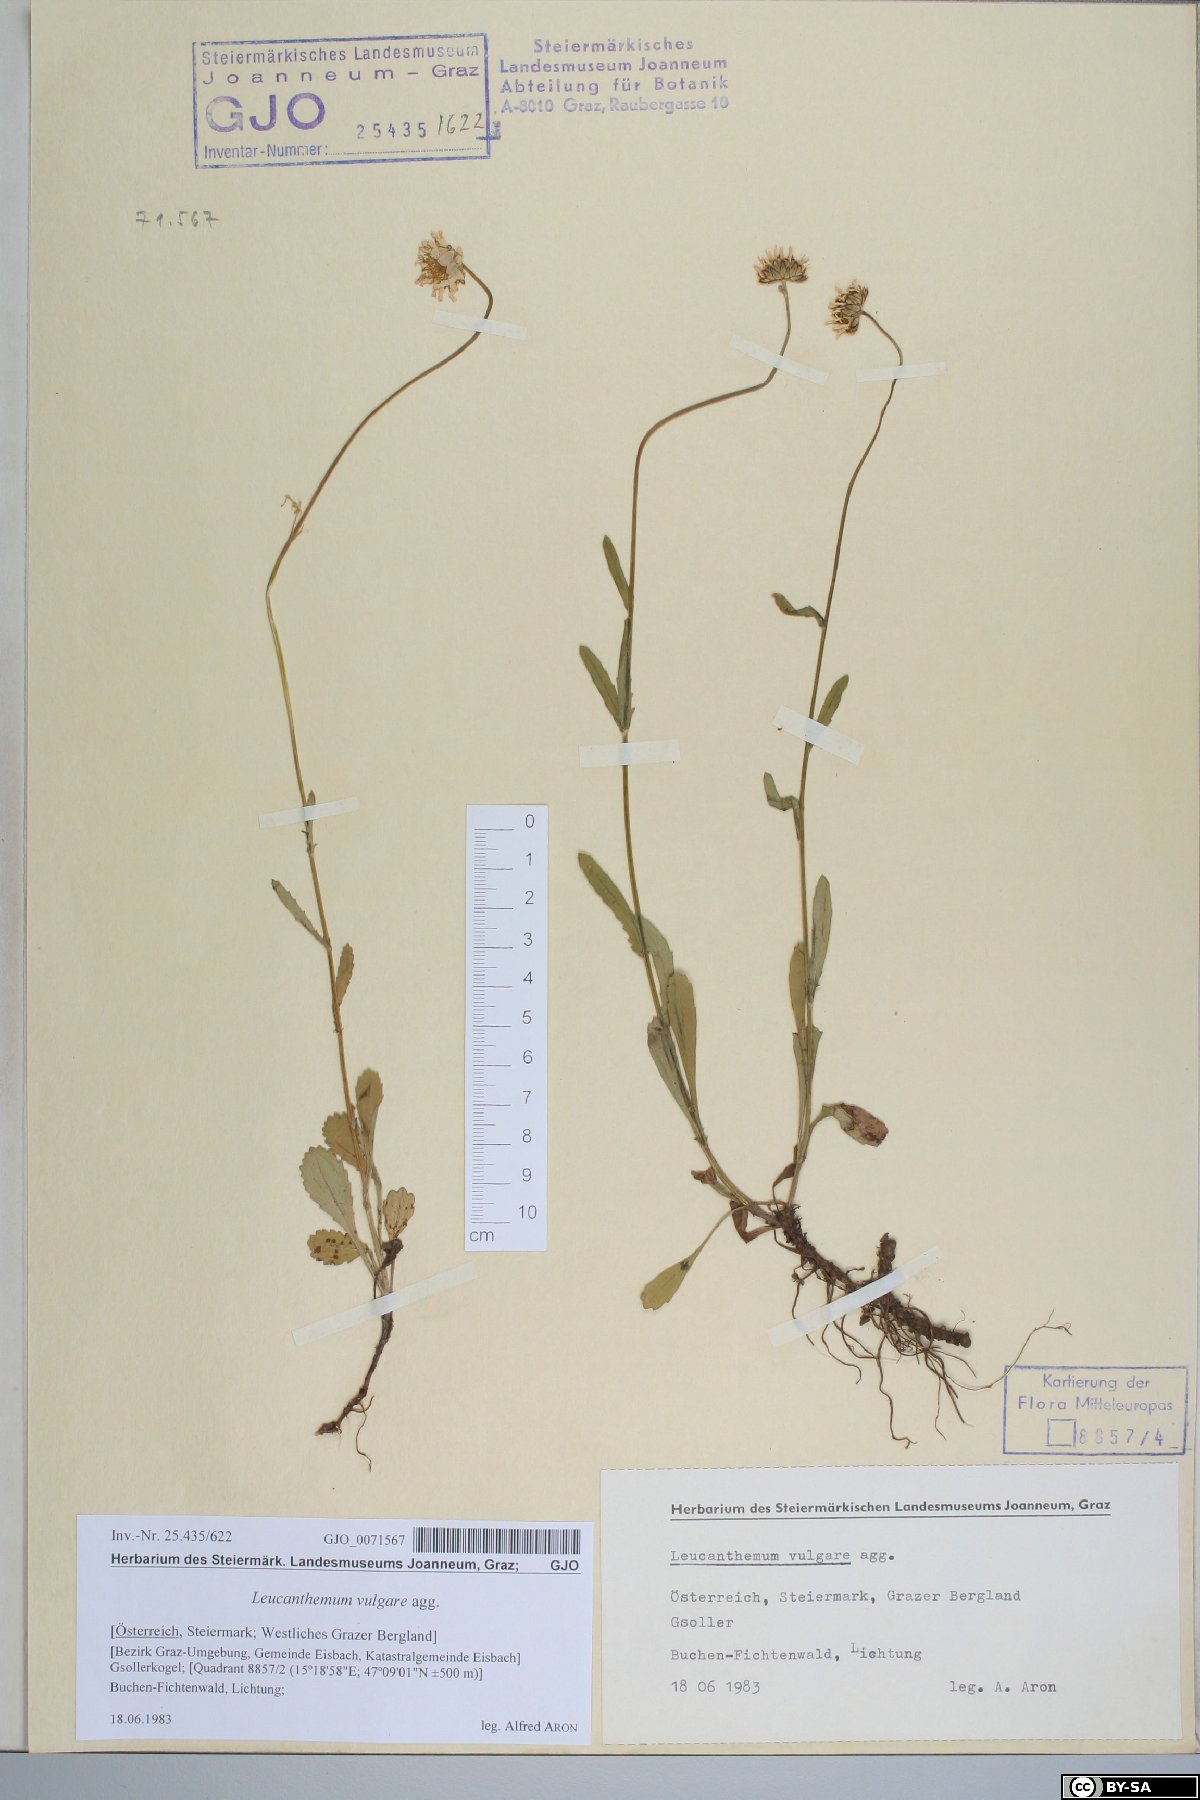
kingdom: Plantae
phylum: Tracheophyta
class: Magnoliopsida
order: Asterales
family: Asteraceae
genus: Leucanthemum
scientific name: Leucanthemum vulgare
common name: Oxeye daisy
